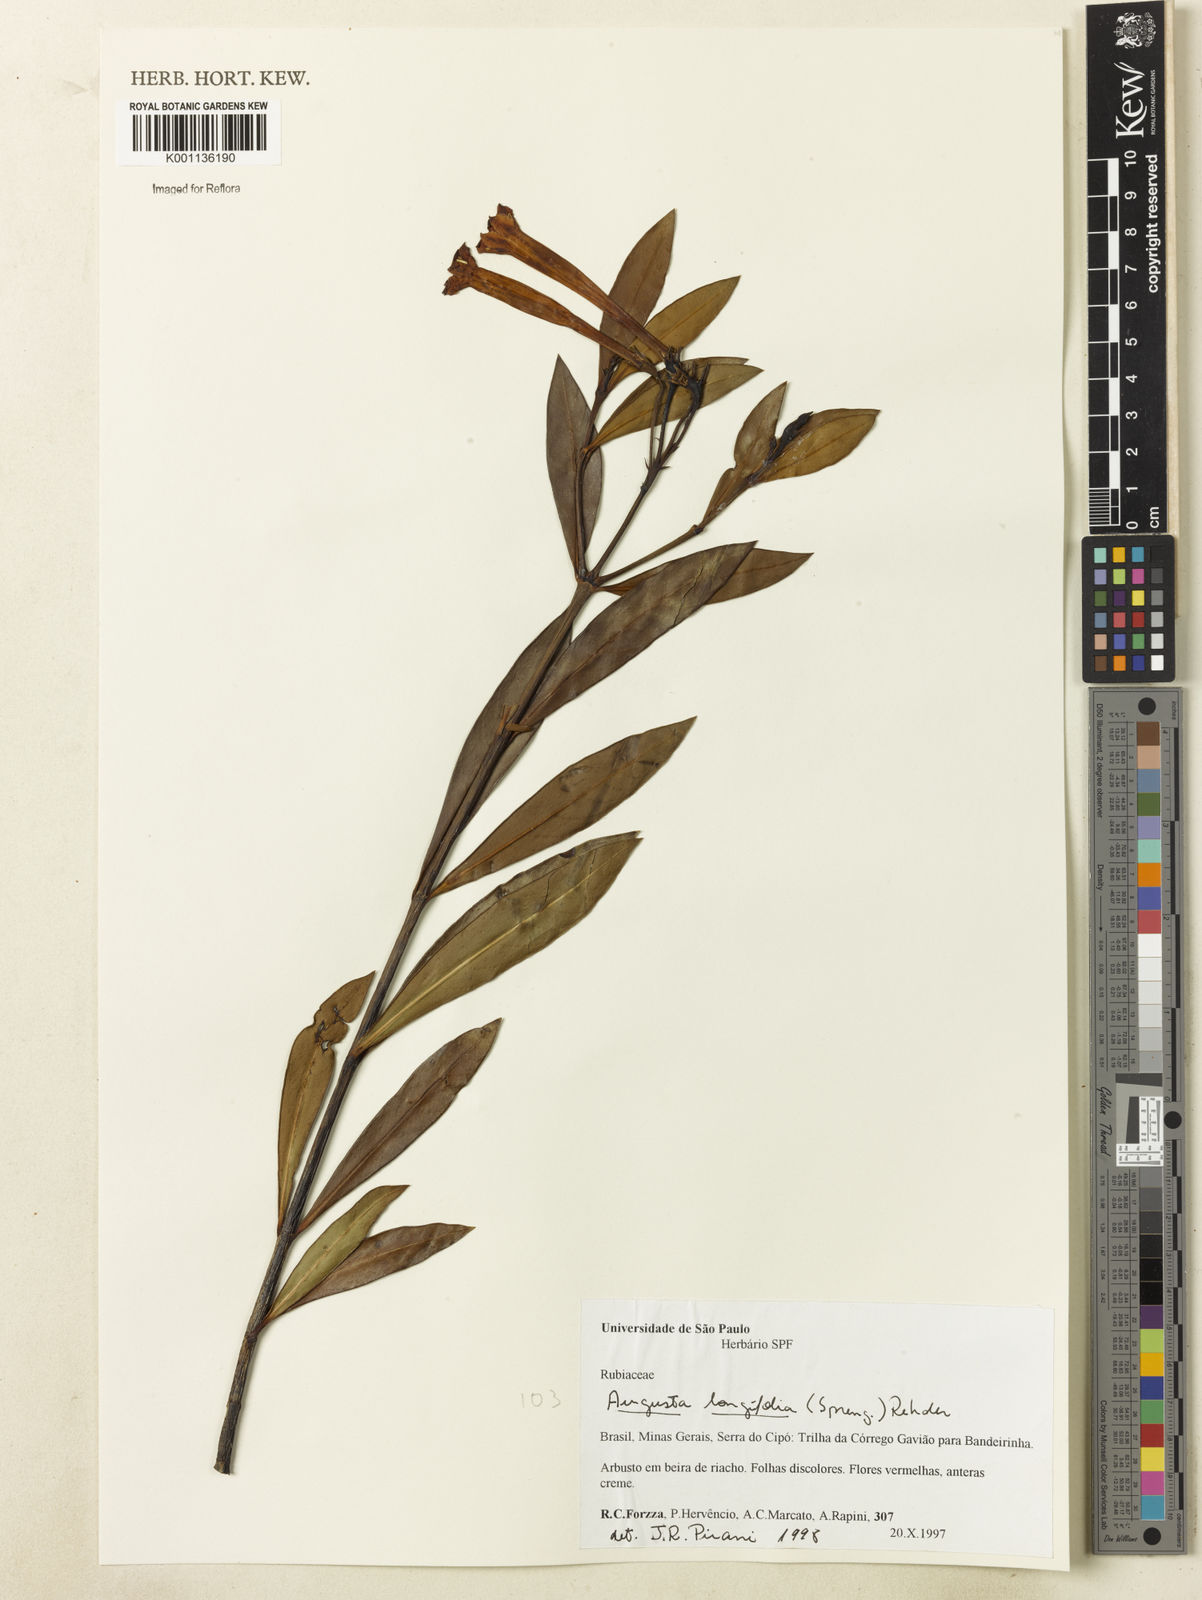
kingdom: Plantae
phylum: Tracheophyta
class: Magnoliopsida
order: Gentianales
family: Rubiaceae
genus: Augusta
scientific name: Augusta longifolia
